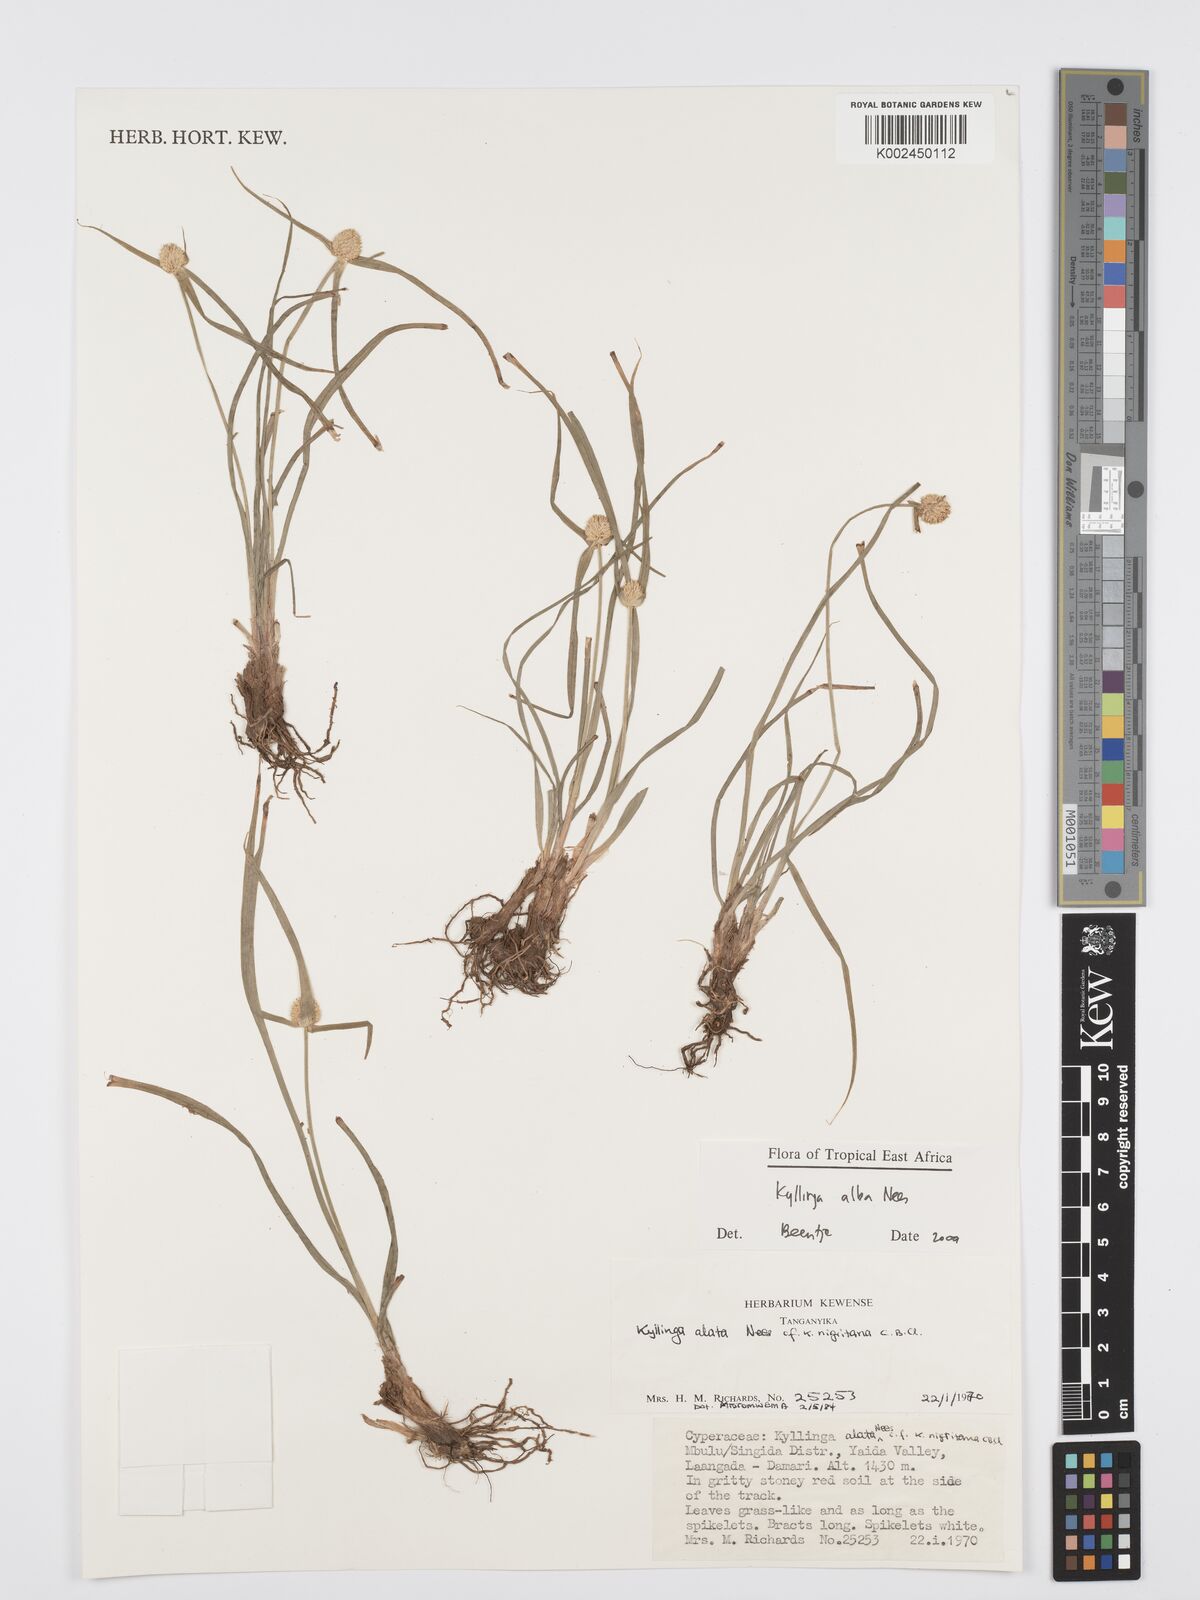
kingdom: Plantae
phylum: Tracheophyta
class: Liliopsida
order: Poales
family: Cyperaceae
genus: Cyperus
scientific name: Cyperus
